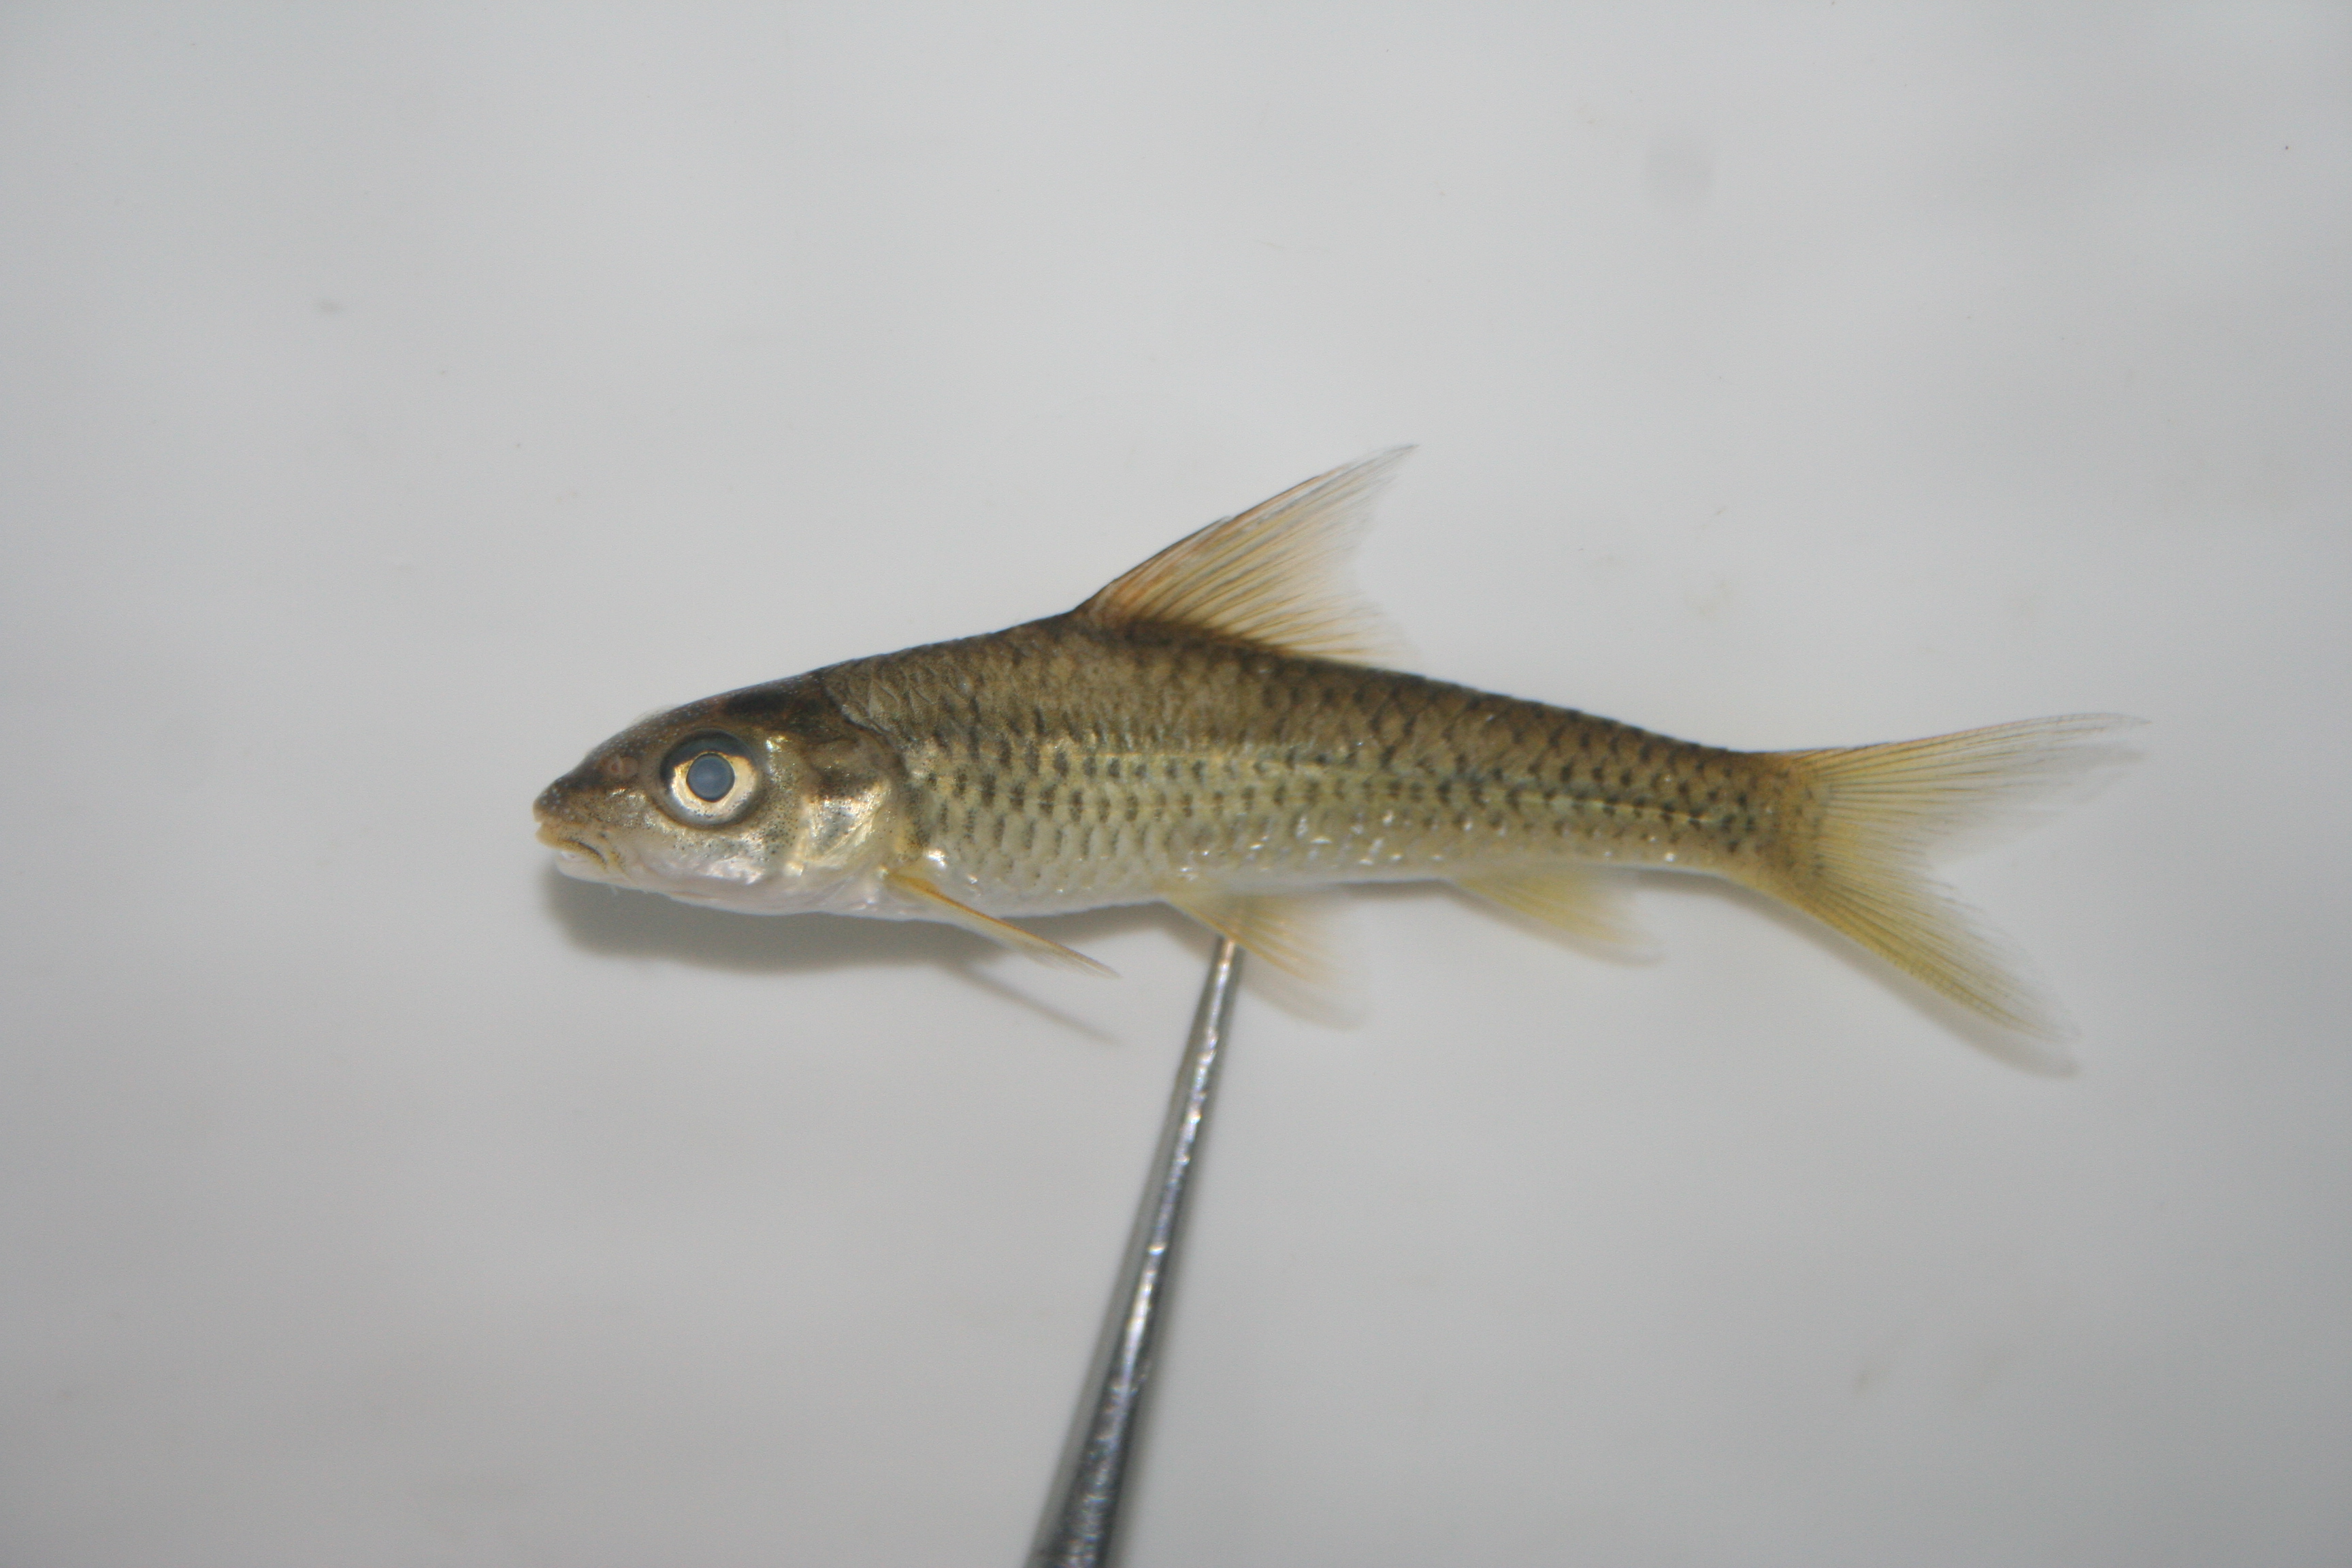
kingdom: Animalia
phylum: Chordata
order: Cypriniformes
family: Cyprinidae
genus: Labeobarbus
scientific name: Labeobarbus rosae
